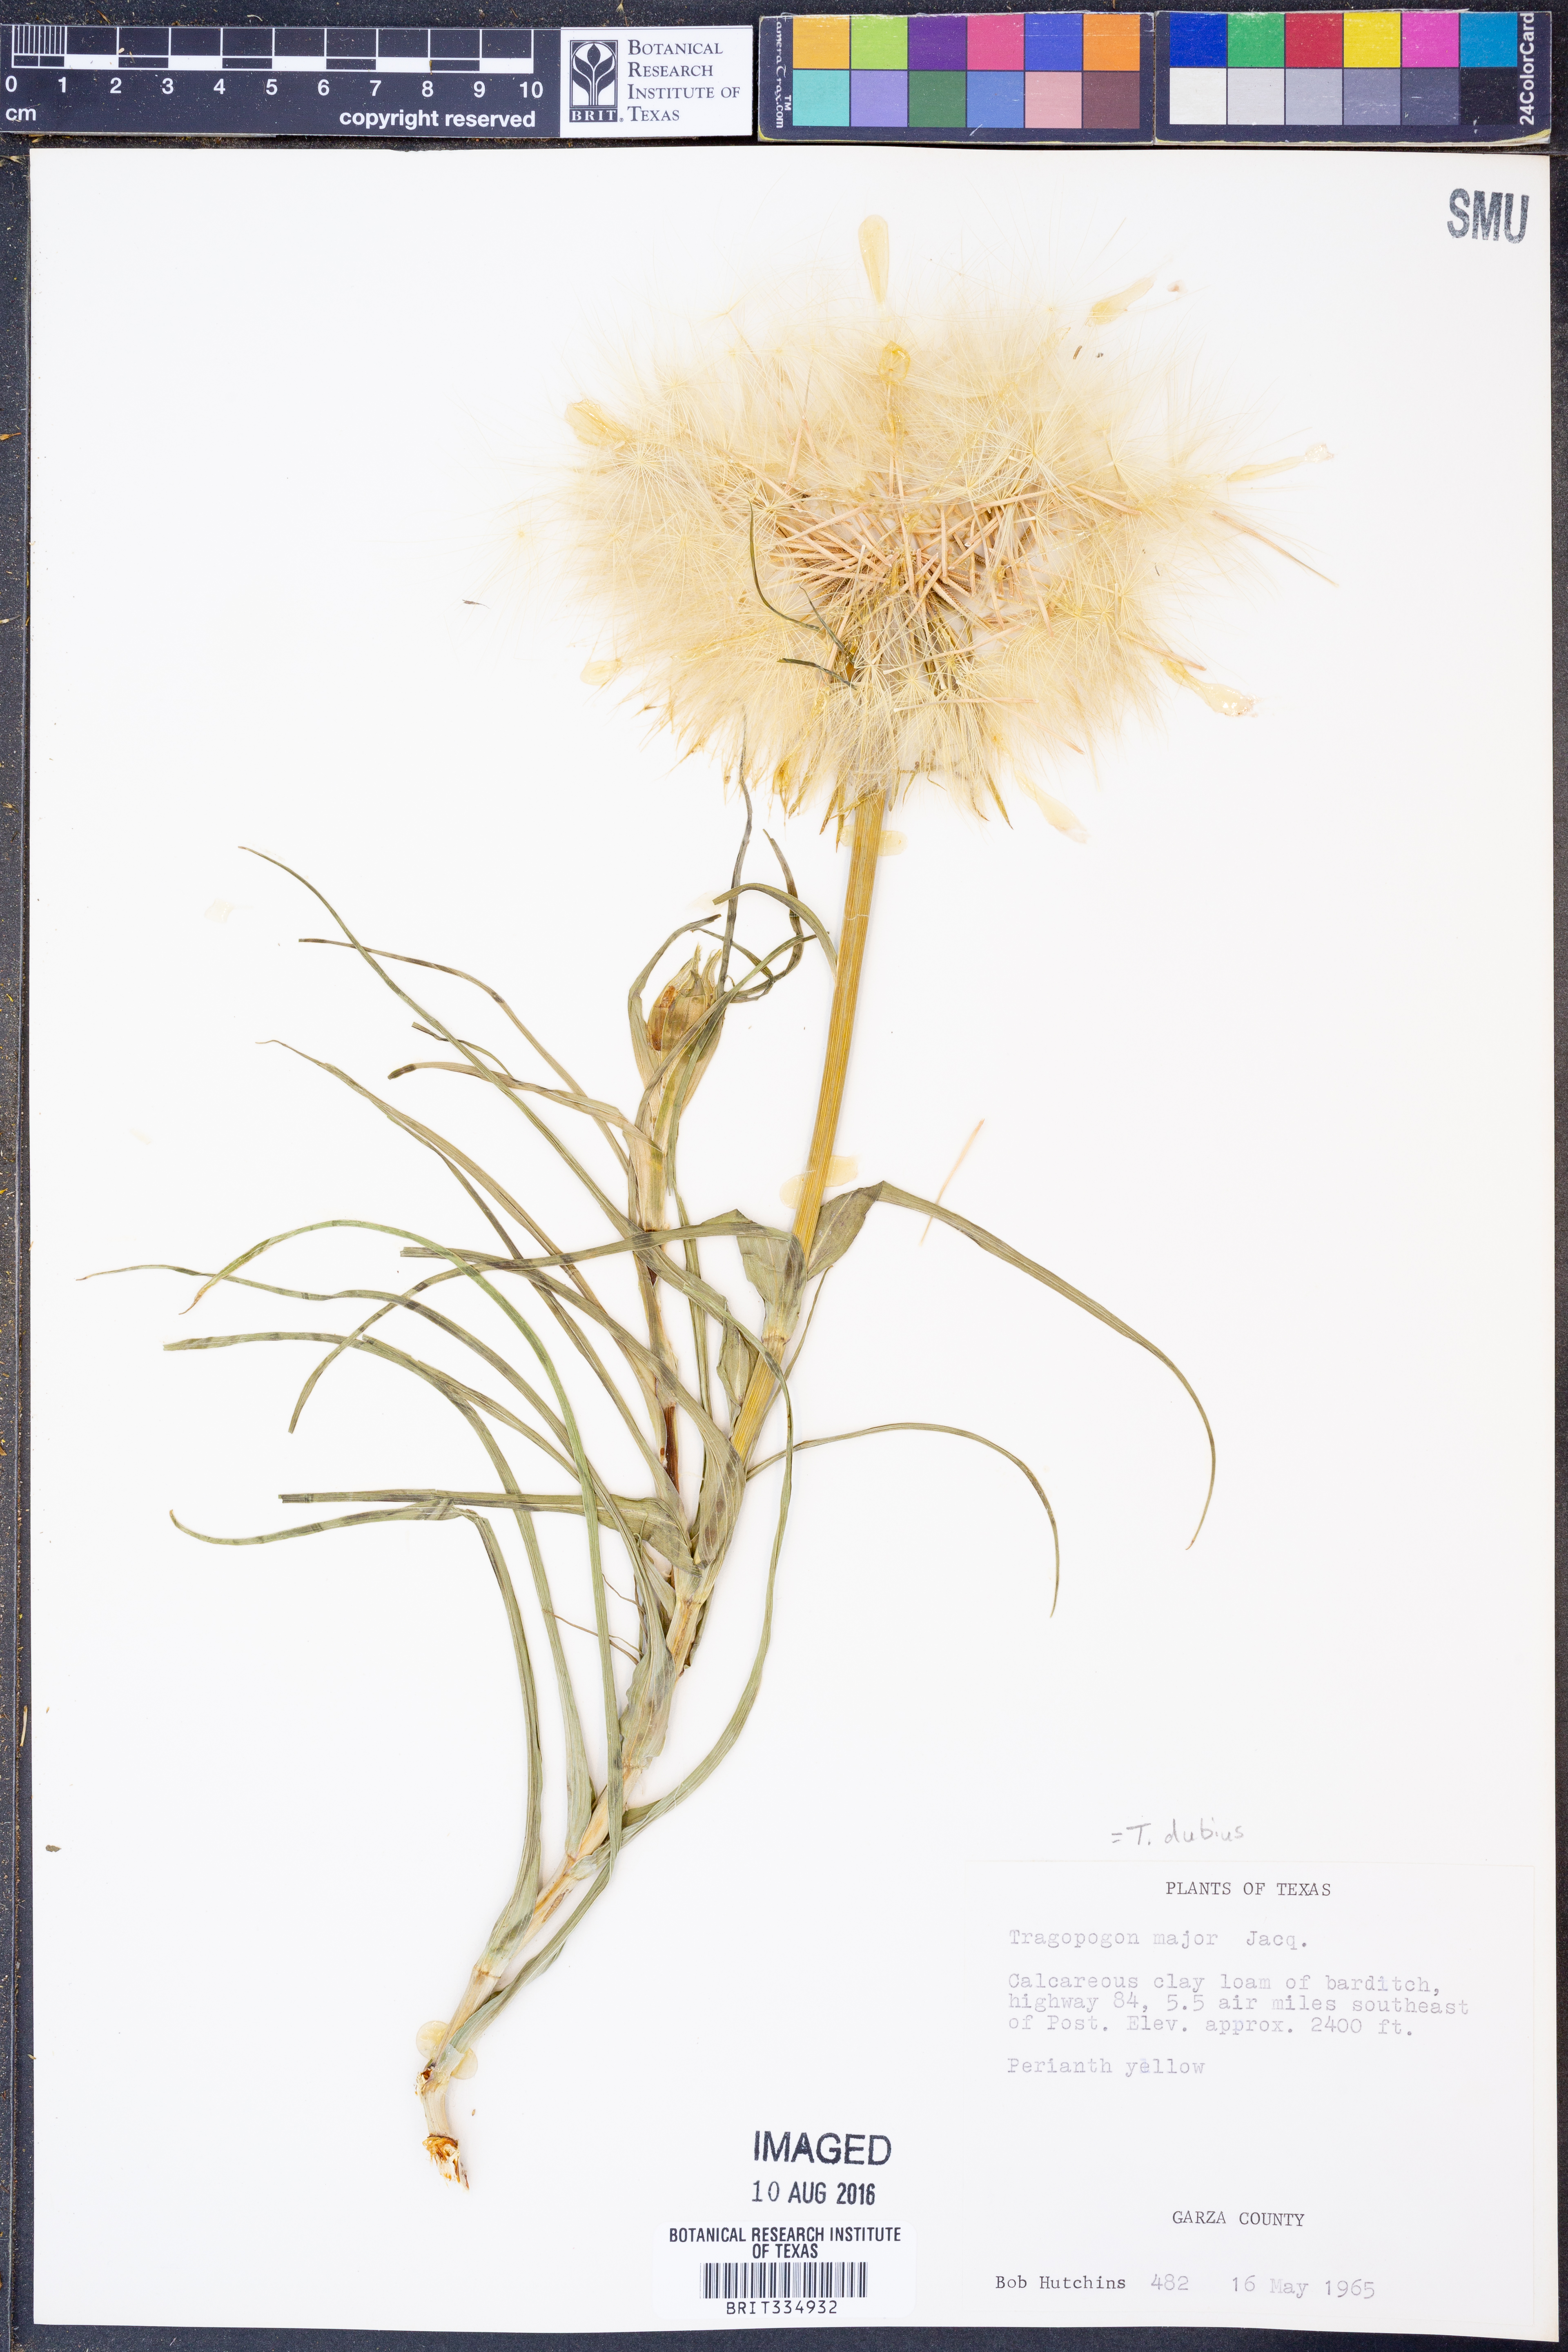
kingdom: Plantae
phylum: Tracheophyta
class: Magnoliopsida
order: Asterales
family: Asteraceae
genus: Tragopogon
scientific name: Tragopogon dubius
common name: Yellow salsify
